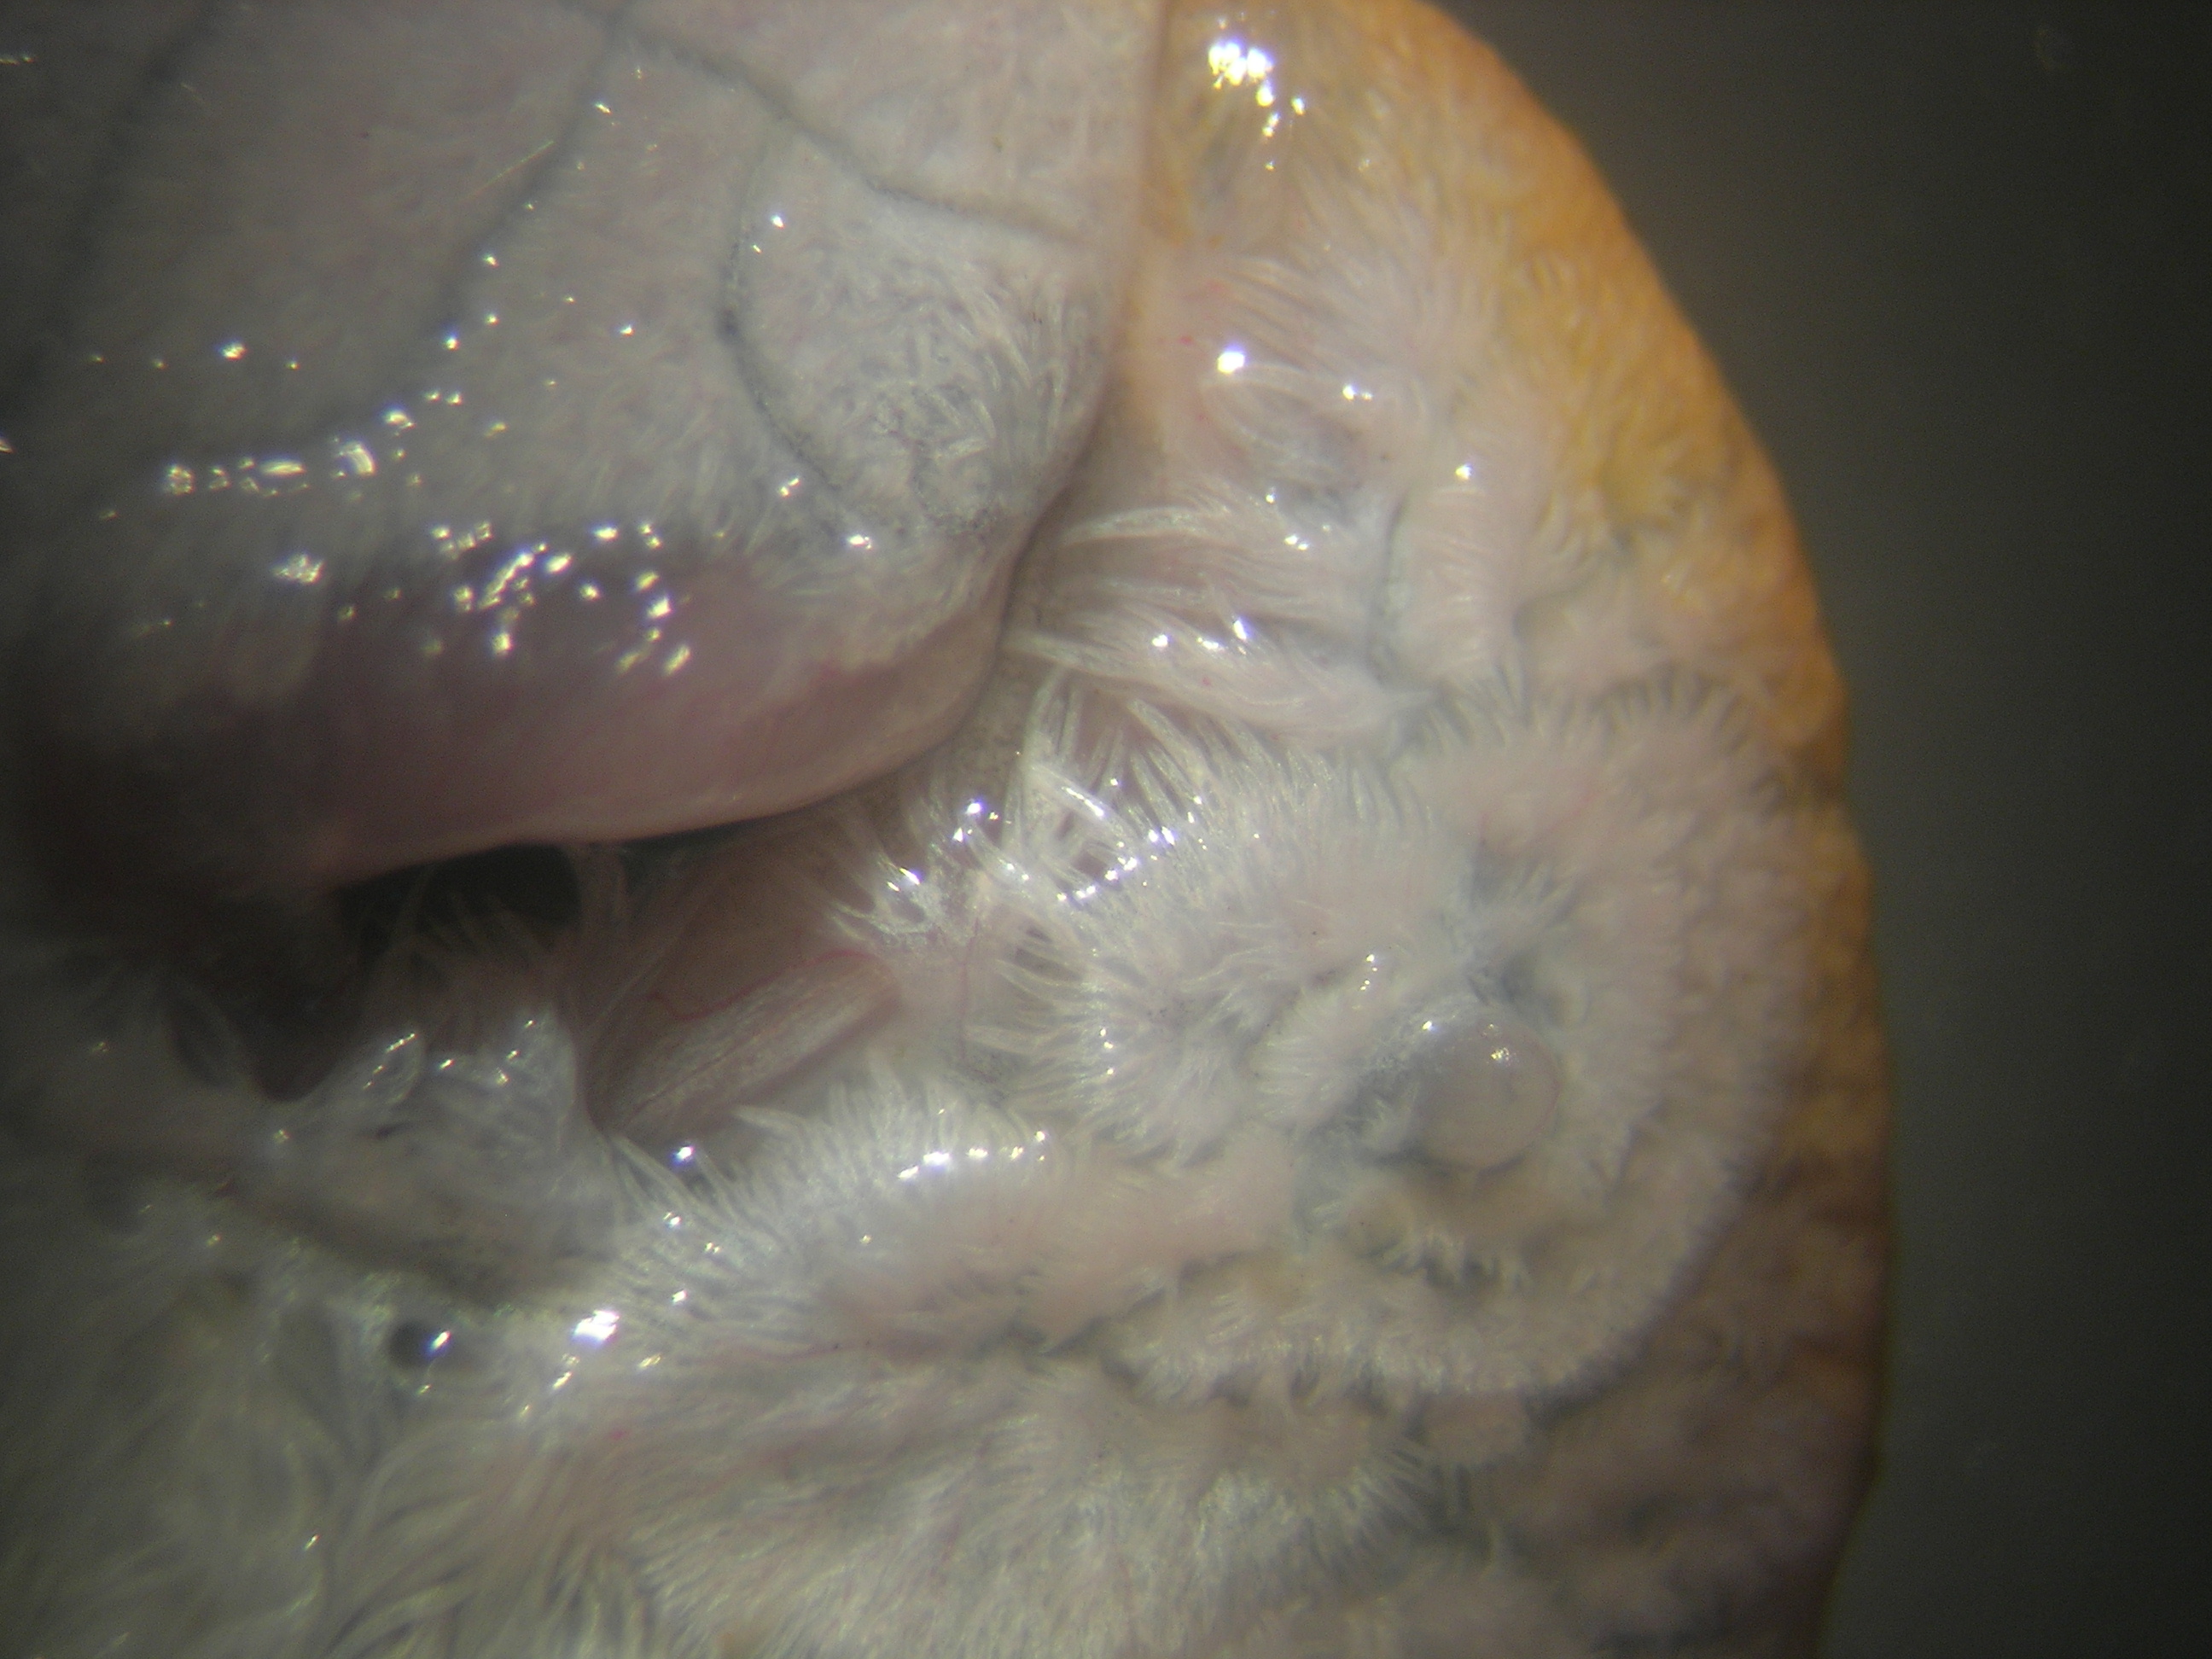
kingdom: Animalia
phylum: Chordata
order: Pleuronectiformes
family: Soleidae
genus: Synaptura
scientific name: Synaptura marginata
